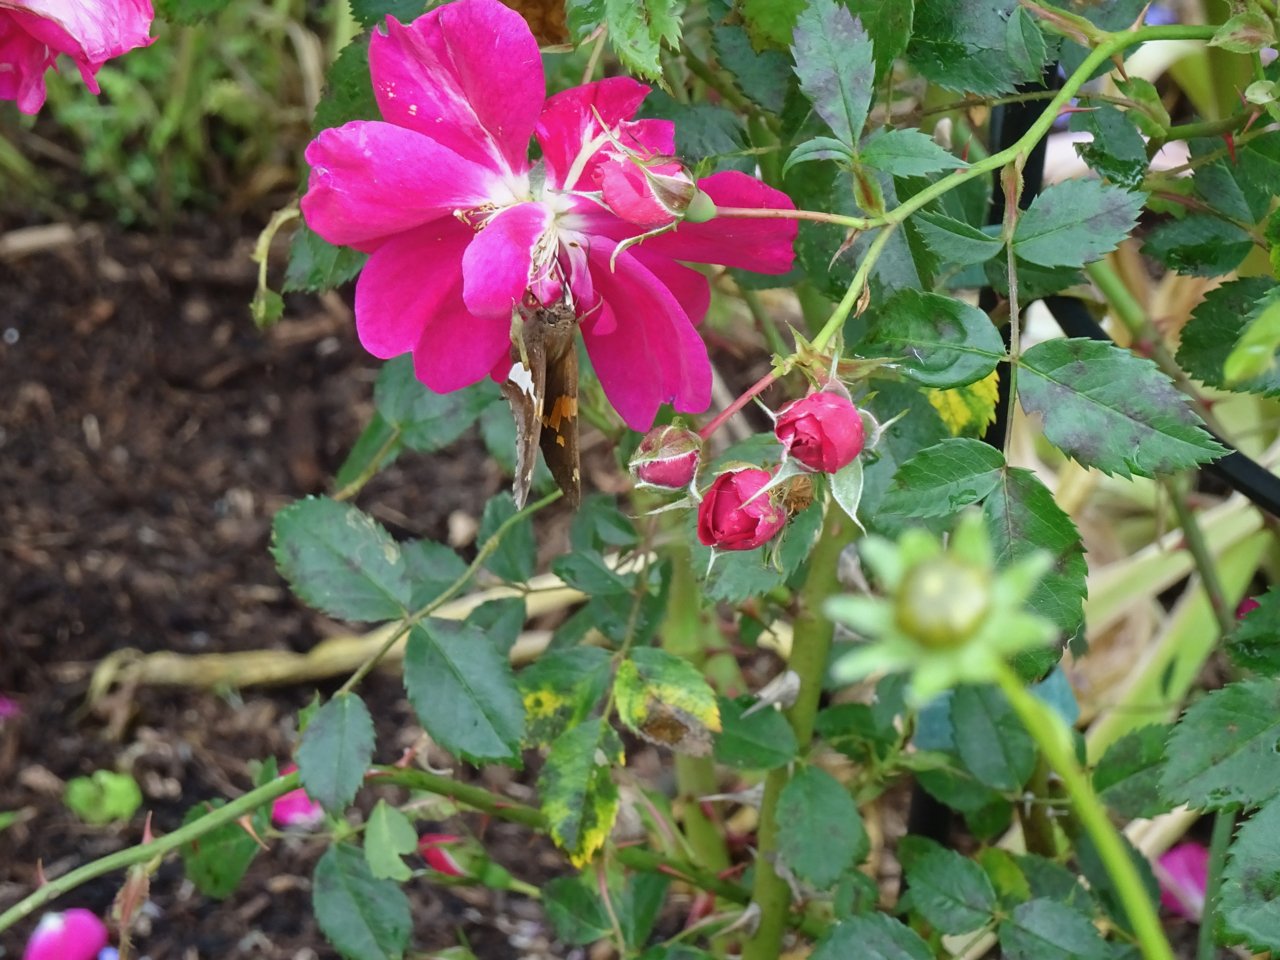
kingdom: Animalia
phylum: Arthropoda
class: Insecta
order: Lepidoptera
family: Hesperiidae
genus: Epargyreus
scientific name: Epargyreus clarus
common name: Silver-spotted Skipper
